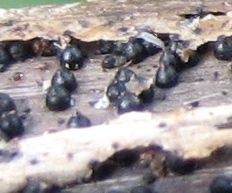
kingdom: Fungi
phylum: Ascomycota
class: Dothideomycetes
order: Pleosporales
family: Leptosphaeriaceae
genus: Leptosphaeria
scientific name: Leptosphaeria acuta
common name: spids kulkegle
